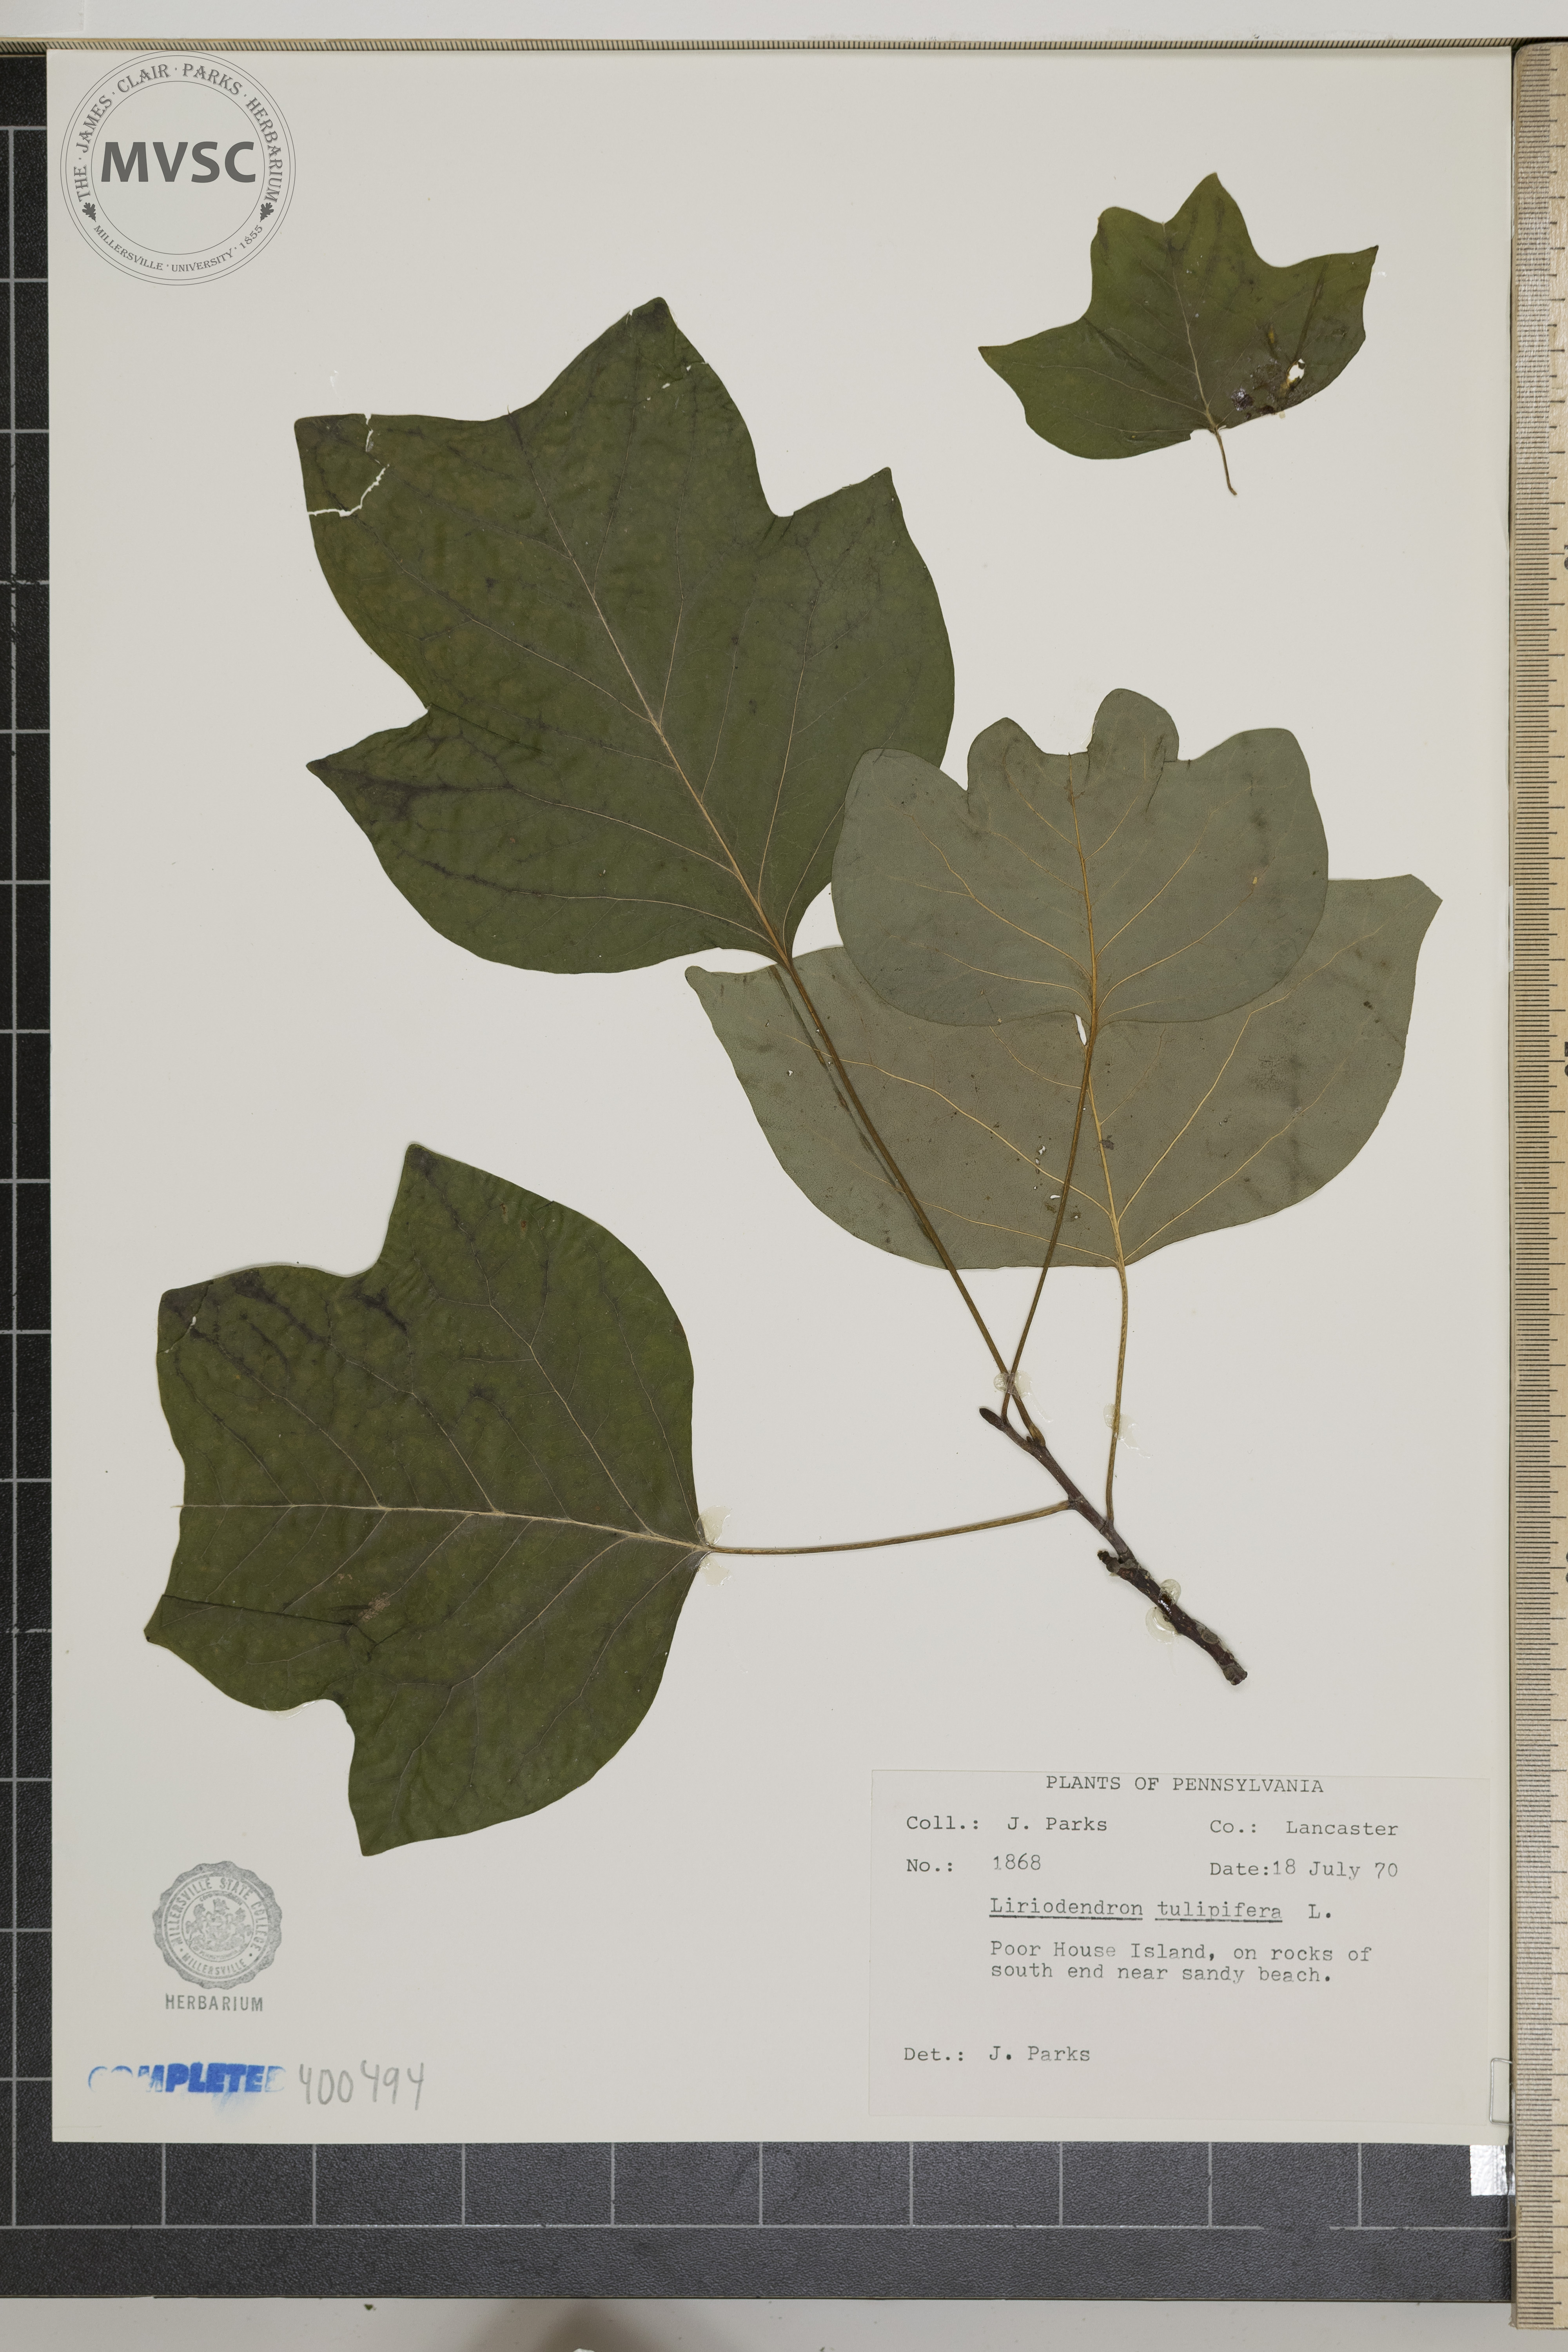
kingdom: Plantae
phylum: Tracheophyta
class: Magnoliopsida
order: Magnoliales
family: Magnoliaceae
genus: Liriodendron
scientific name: Liriodendron tulipifera
